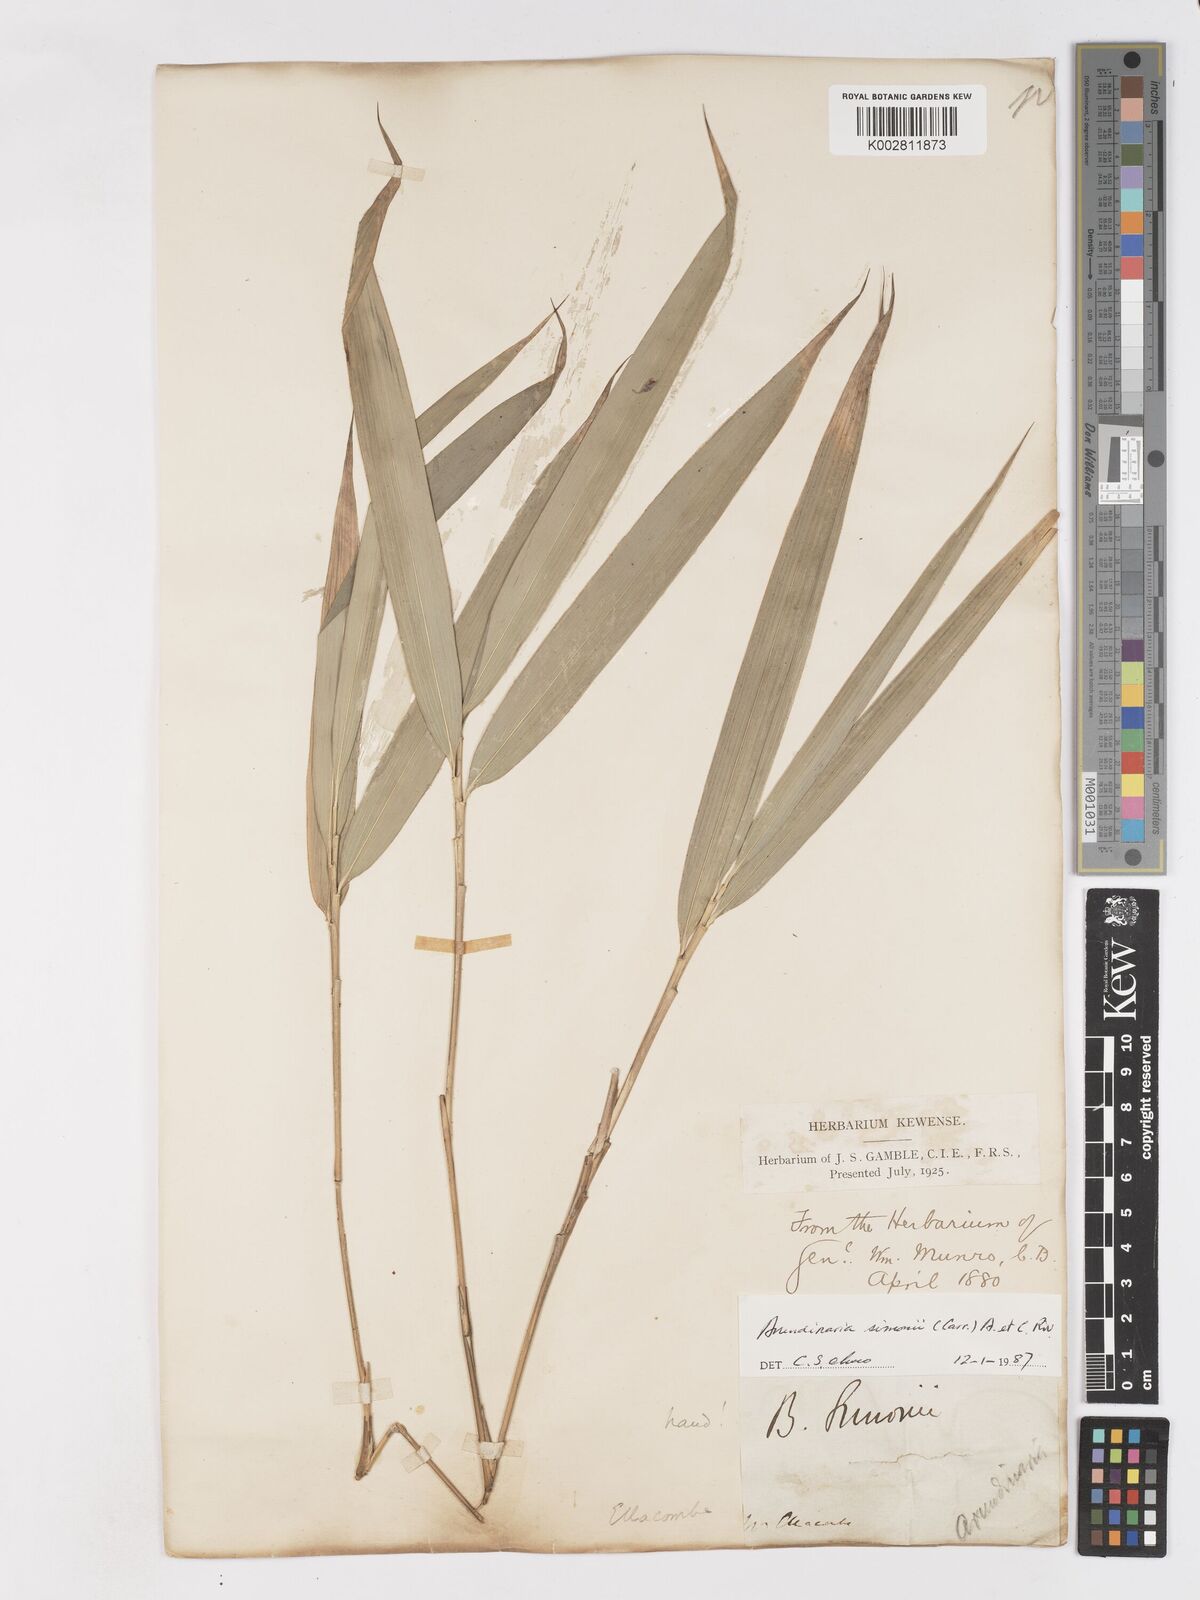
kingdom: Plantae
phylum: Tracheophyta
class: Liliopsida
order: Poales
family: Poaceae
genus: Pleioblastus
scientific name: Pleioblastus simonii
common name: Simon bamboo
